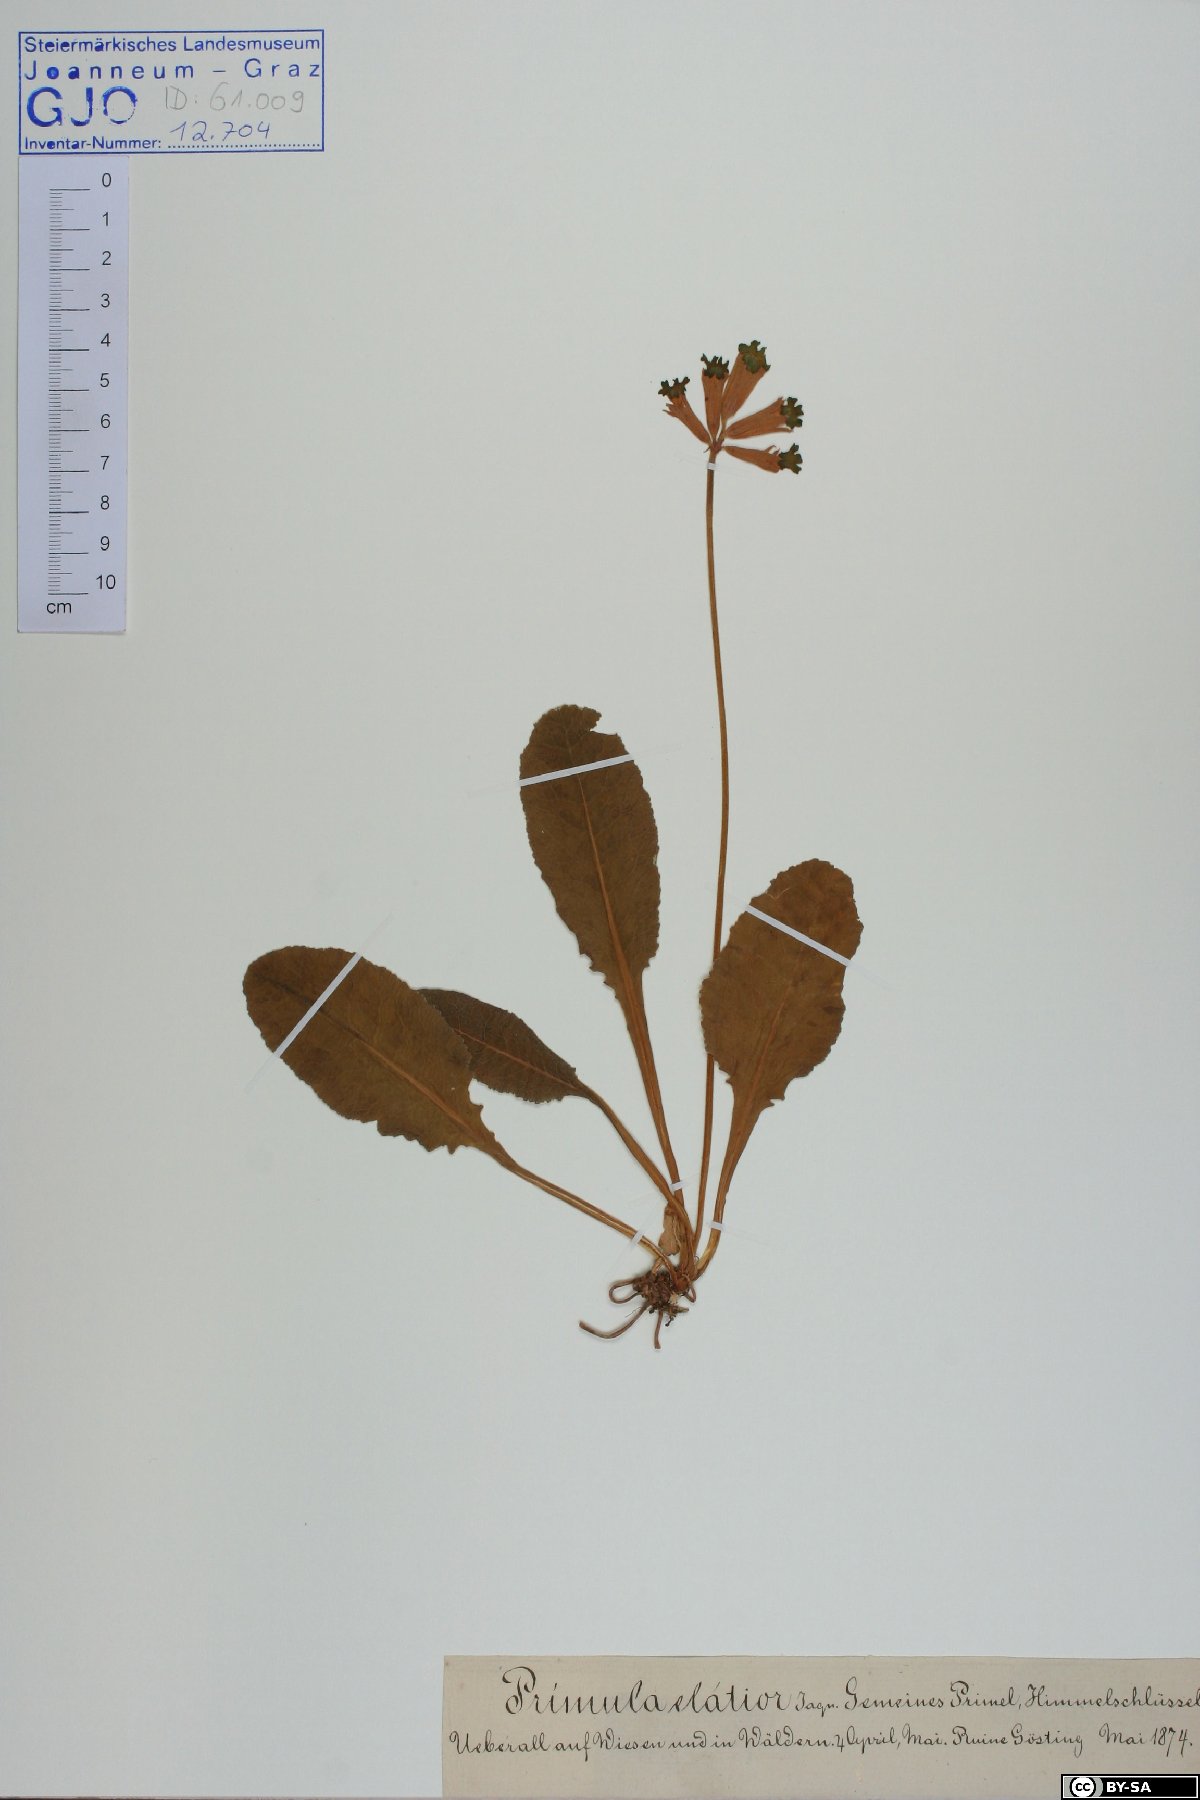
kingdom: Plantae
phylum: Tracheophyta
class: Magnoliopsida
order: Ericales
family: Primulaceae
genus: Primula
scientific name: Primula veris
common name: Cowslip
